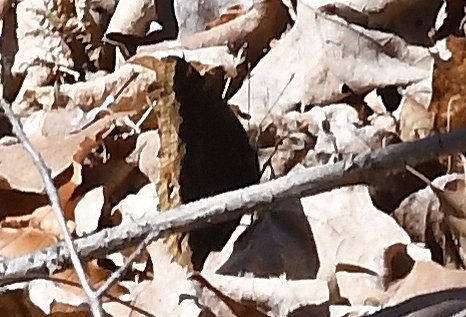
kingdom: Animalia
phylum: Arthropoda
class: Insecta
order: Lepidoptera
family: Nymphalidae
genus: Nymphalis
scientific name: Nymphalis antiopa
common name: Mourning Cloak
